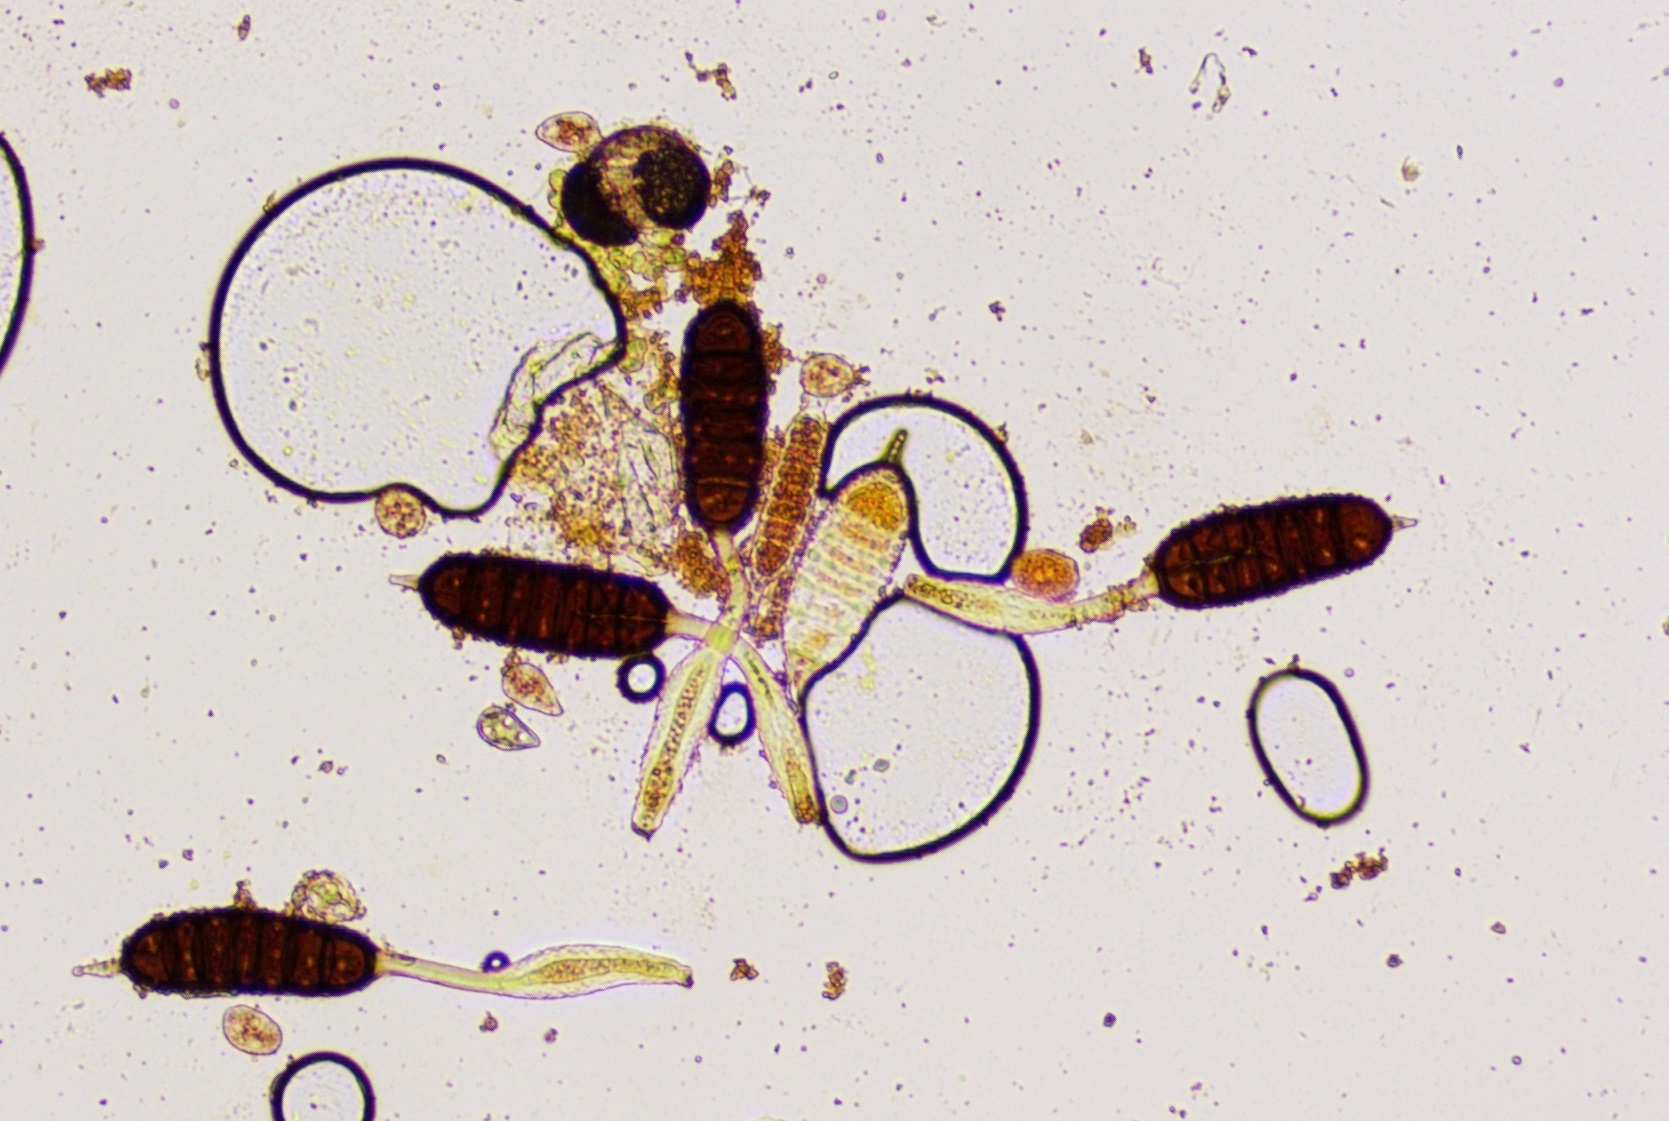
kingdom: Fungi
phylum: Basidiomycota
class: Pucciniomycetes
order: Pucciniales
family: Phragmidiaceae
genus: Phragmidium
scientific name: Phragmidium mucronatum
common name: rose-flercellerust
